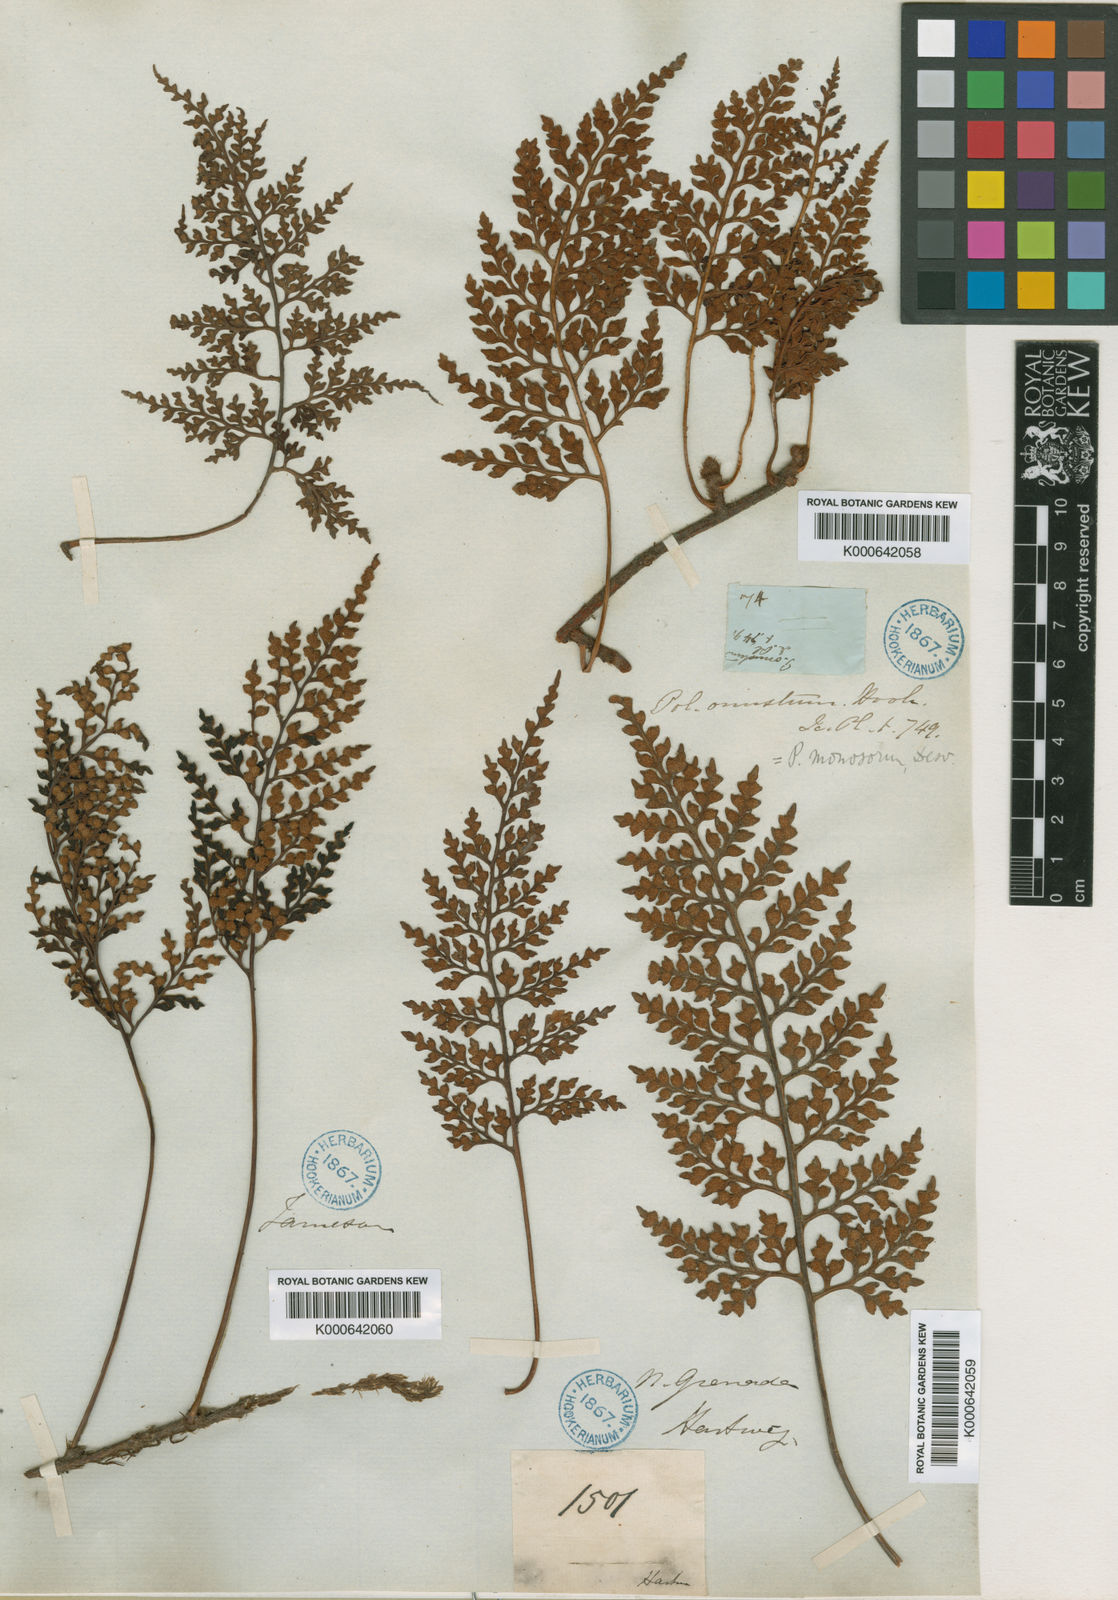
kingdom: Plantae
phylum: Tracheophyta
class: Polypodiopsida
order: Polypodiales
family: Polypodiaceae
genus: Pleopeltis
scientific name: Pleopeltis monosora
